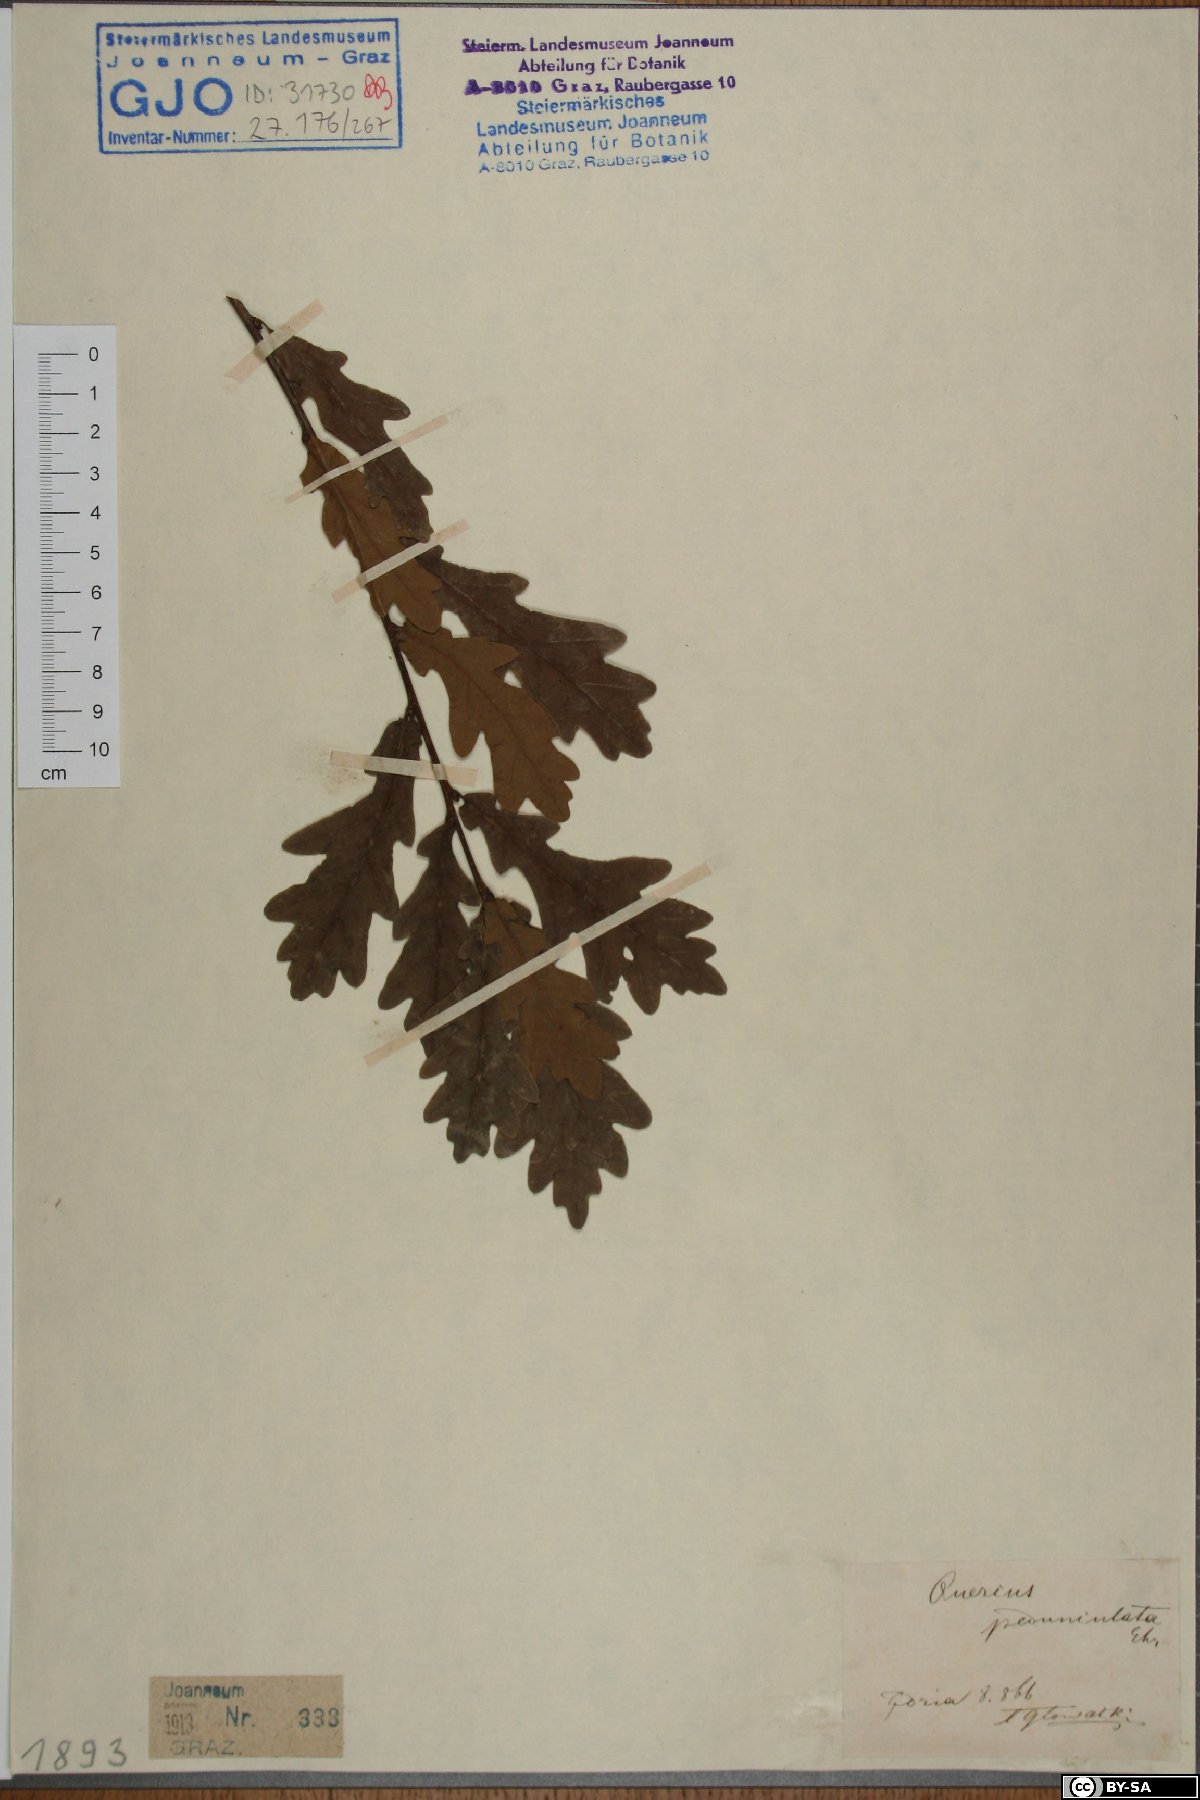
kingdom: Plantae
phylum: Tracheophyta
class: Magnoliopsida
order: Fagales
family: Fagaceae
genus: Quercus
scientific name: Quercus robur
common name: Pedunculate oak
